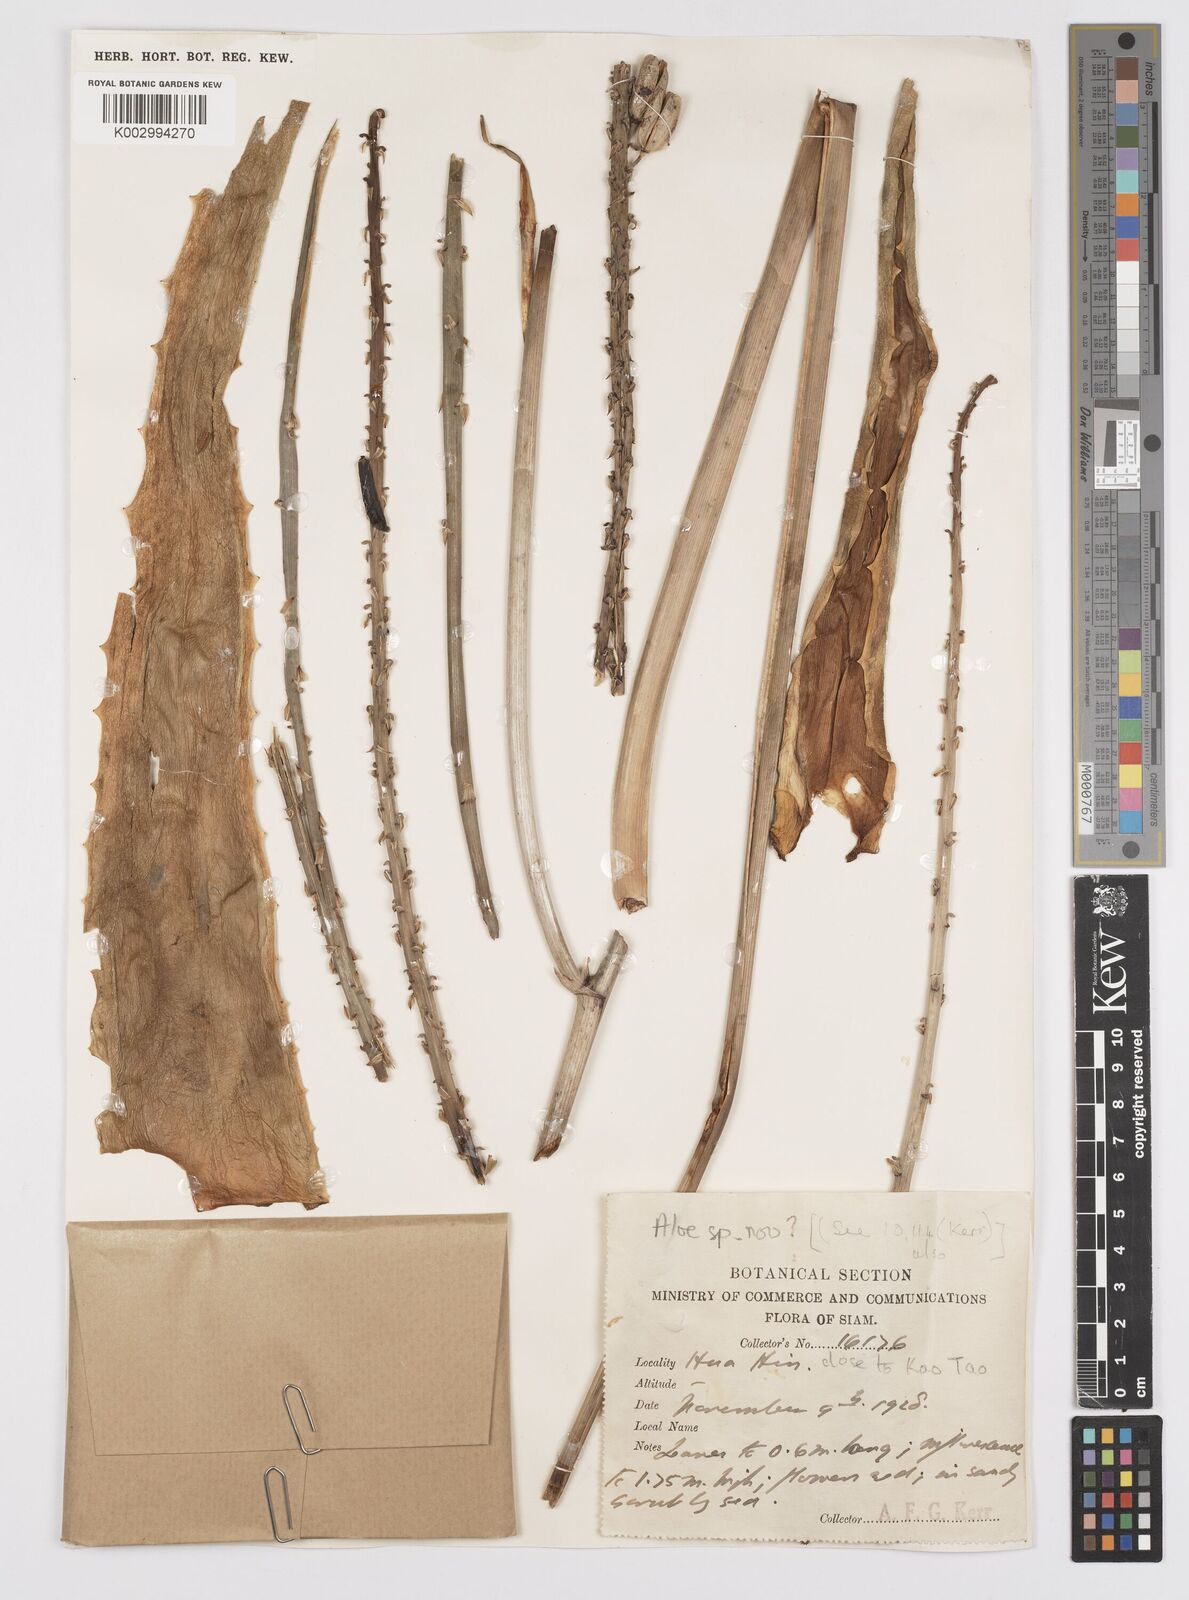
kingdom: Plantae
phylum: Tracheophyta
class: Liliopsida
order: Asparagales
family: Asphodelaceae
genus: Aloe
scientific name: Aloe
